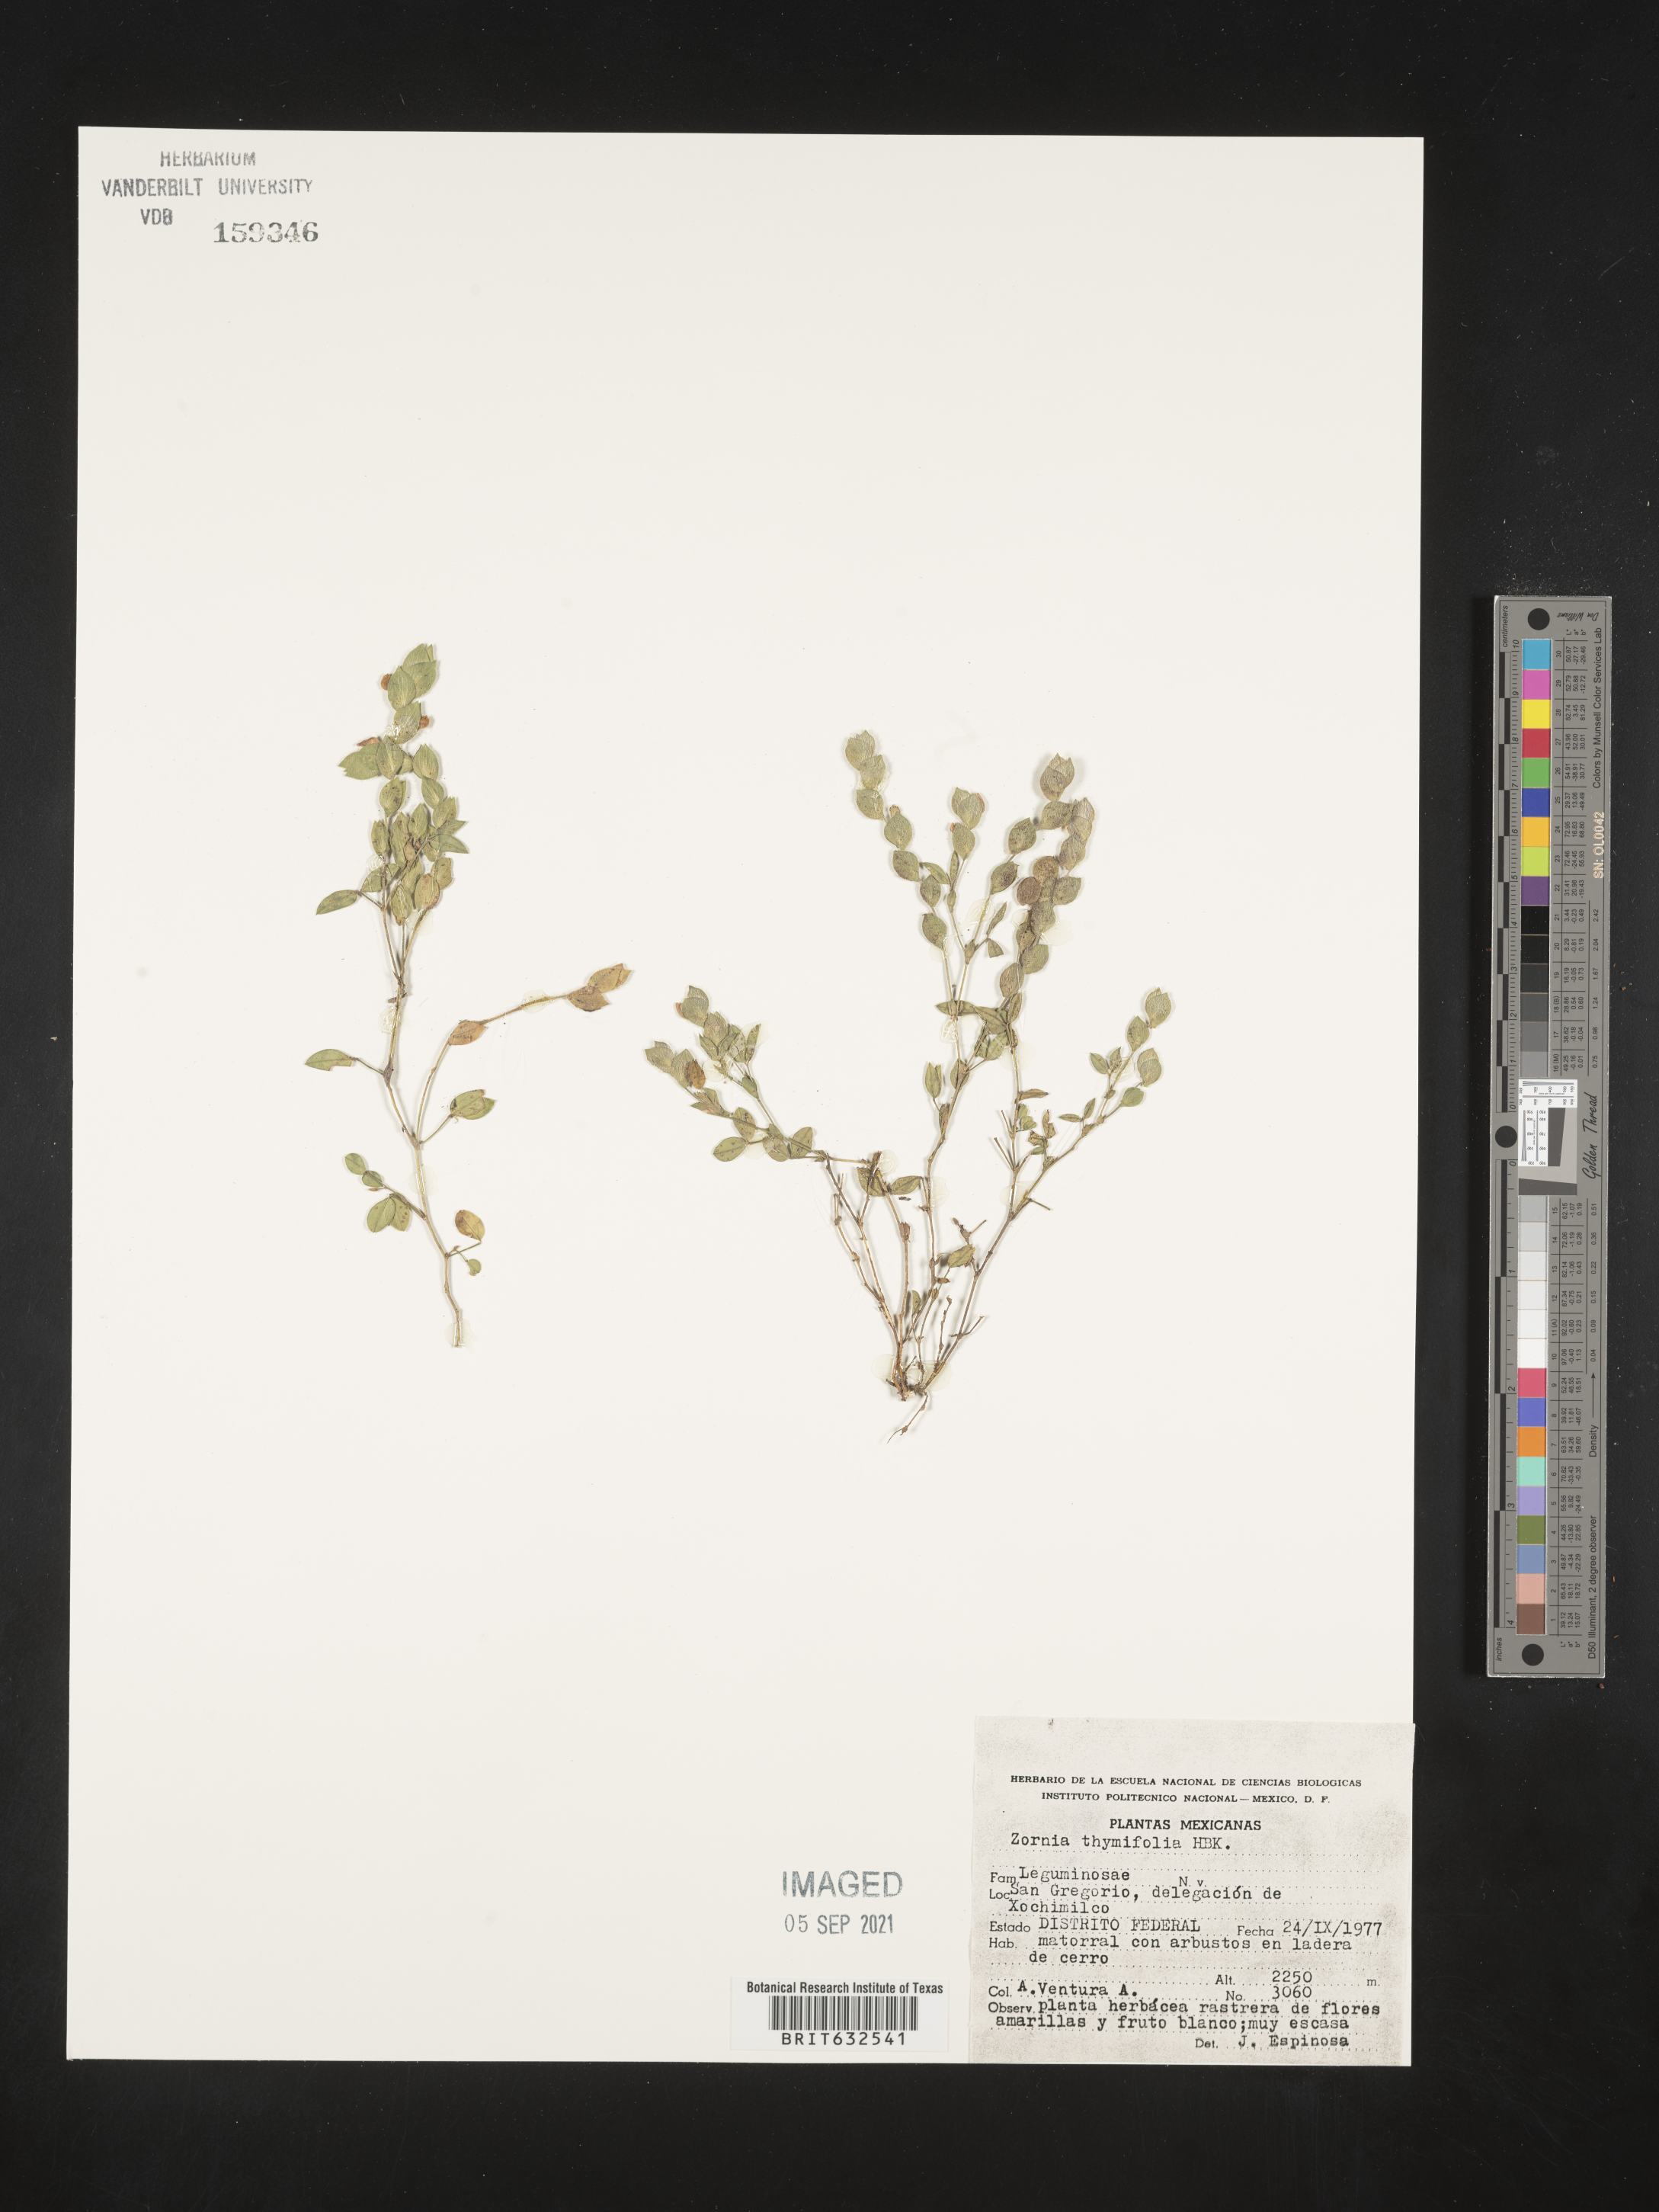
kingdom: Plantae
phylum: Tracheophyta
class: Magnoliopsida
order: Fabales
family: Fabaceae
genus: Zornia
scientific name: Zornia
